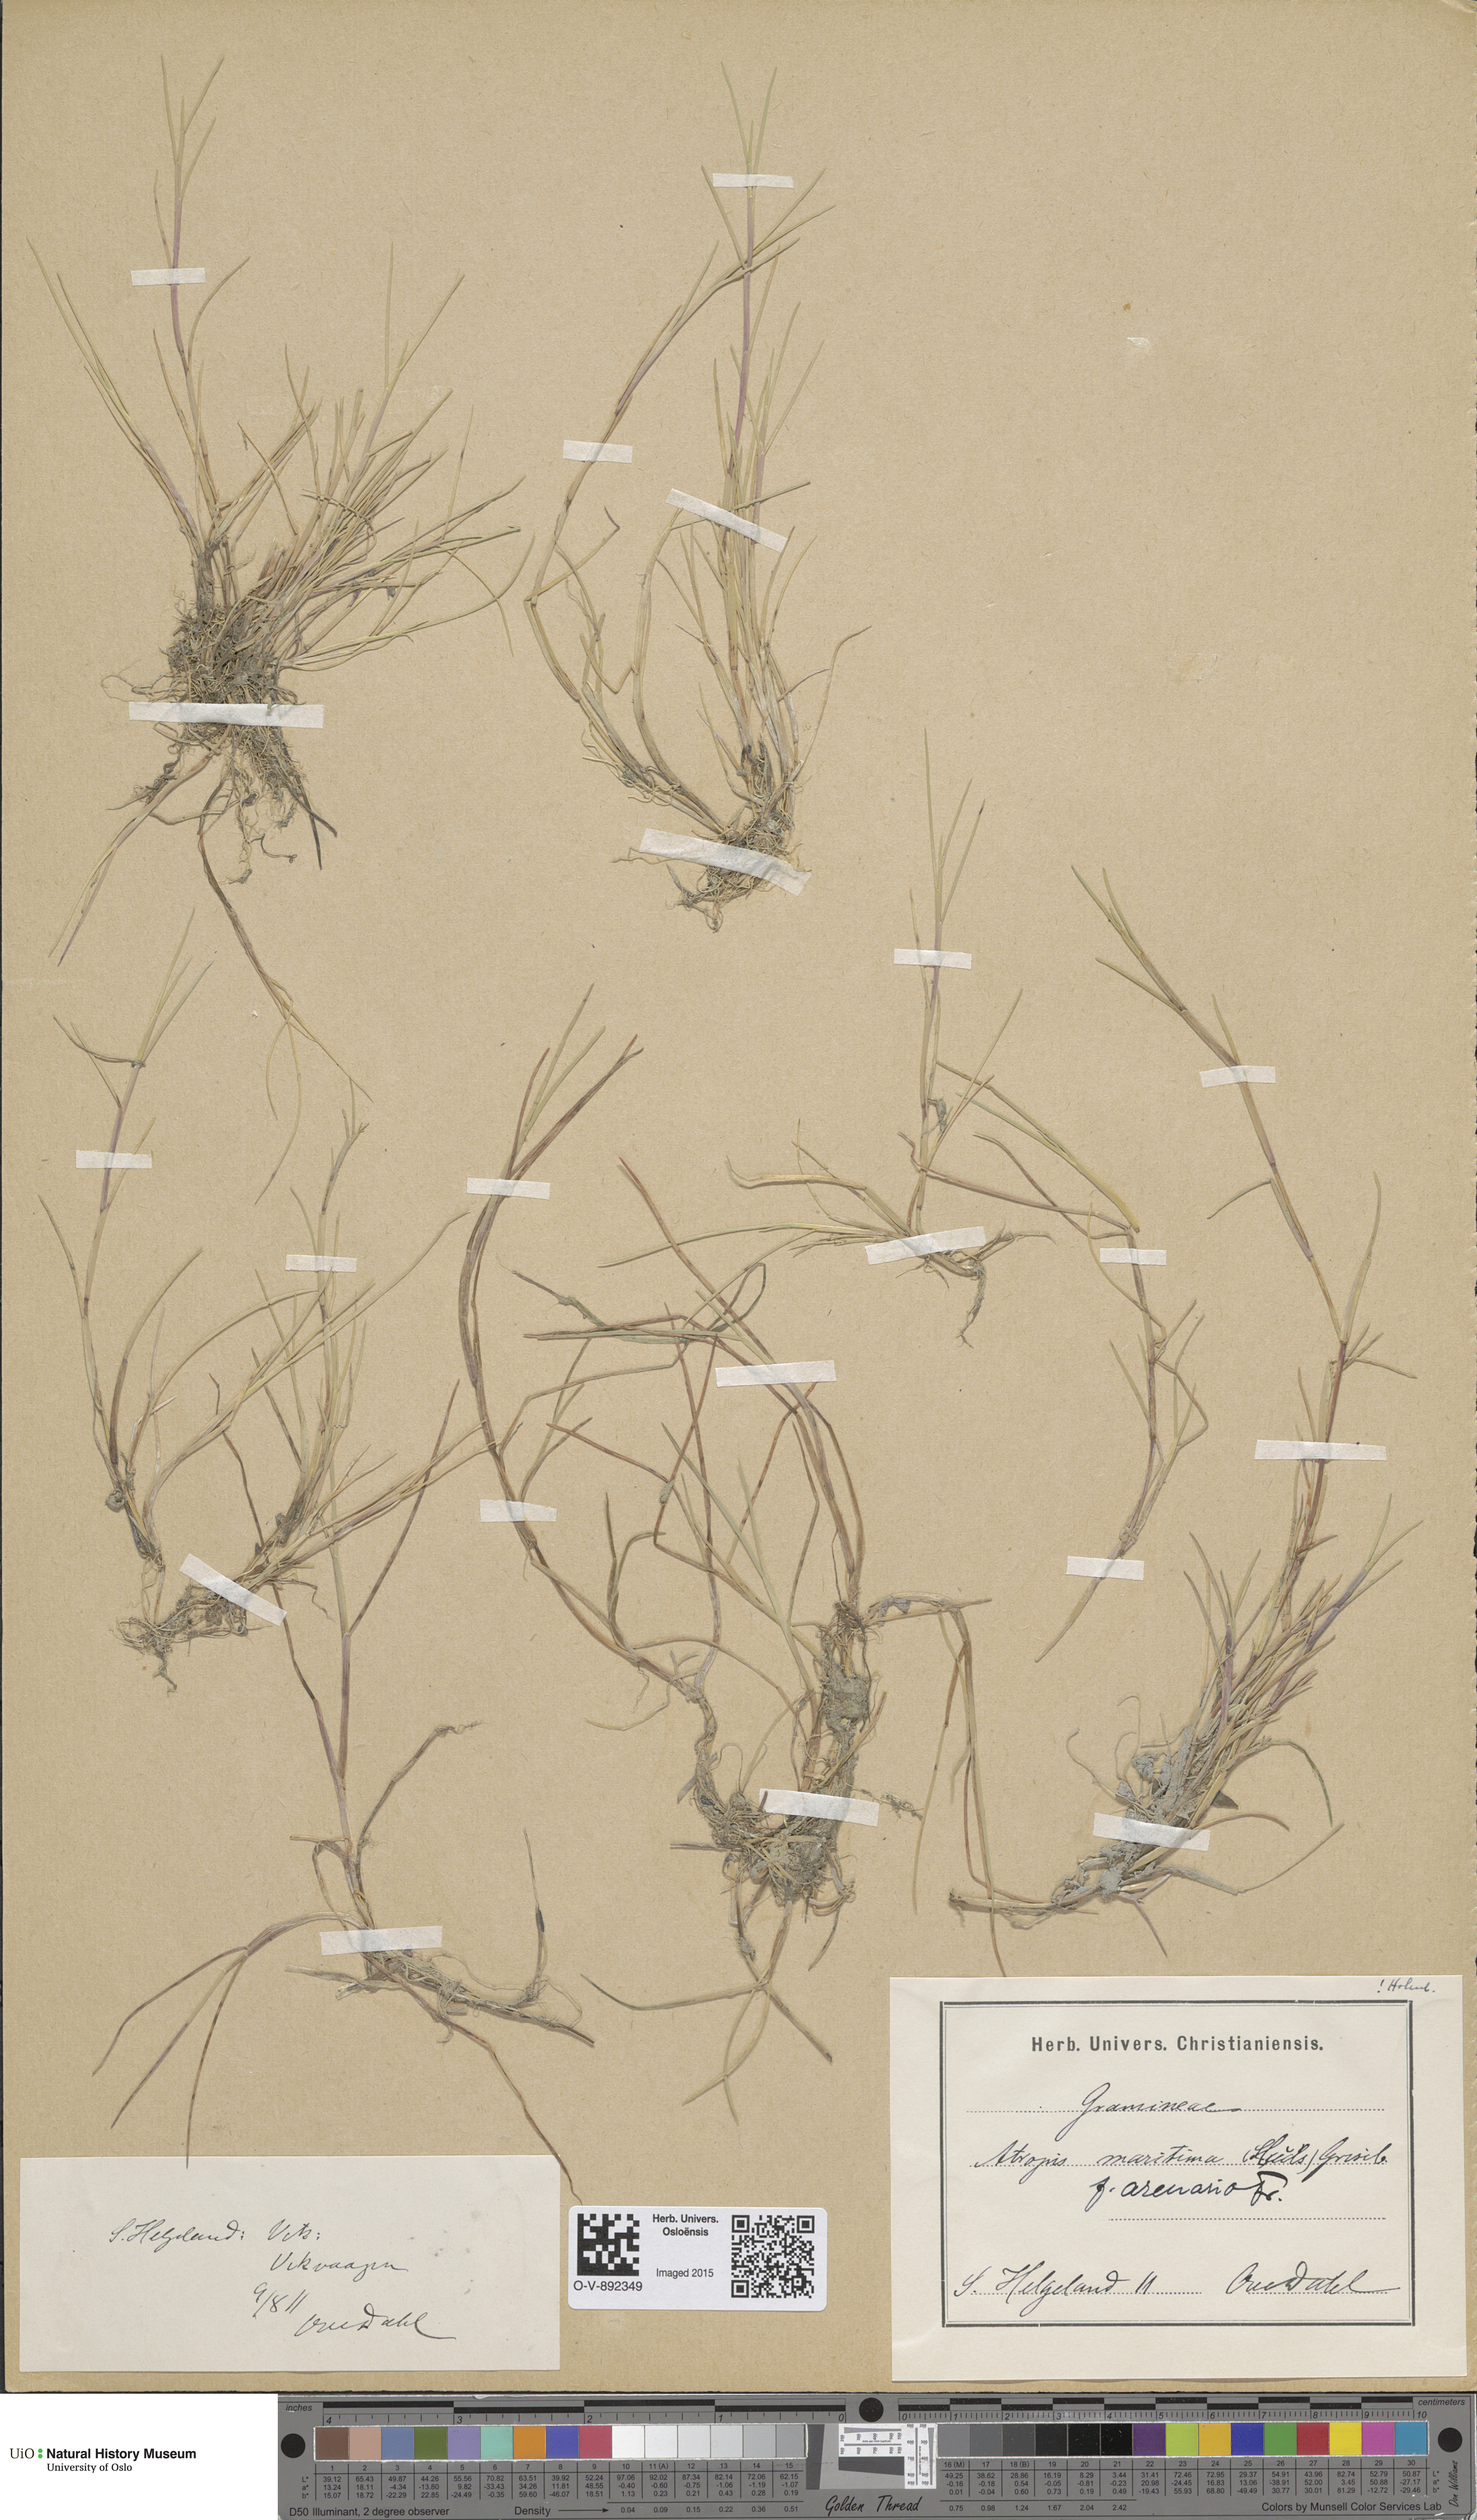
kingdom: Plantae
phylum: Tracheophyta
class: Liliopsida
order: Poales
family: Poaceae
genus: Puccinellia
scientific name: Puccinellia maritima
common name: Common saltmarsh grass
